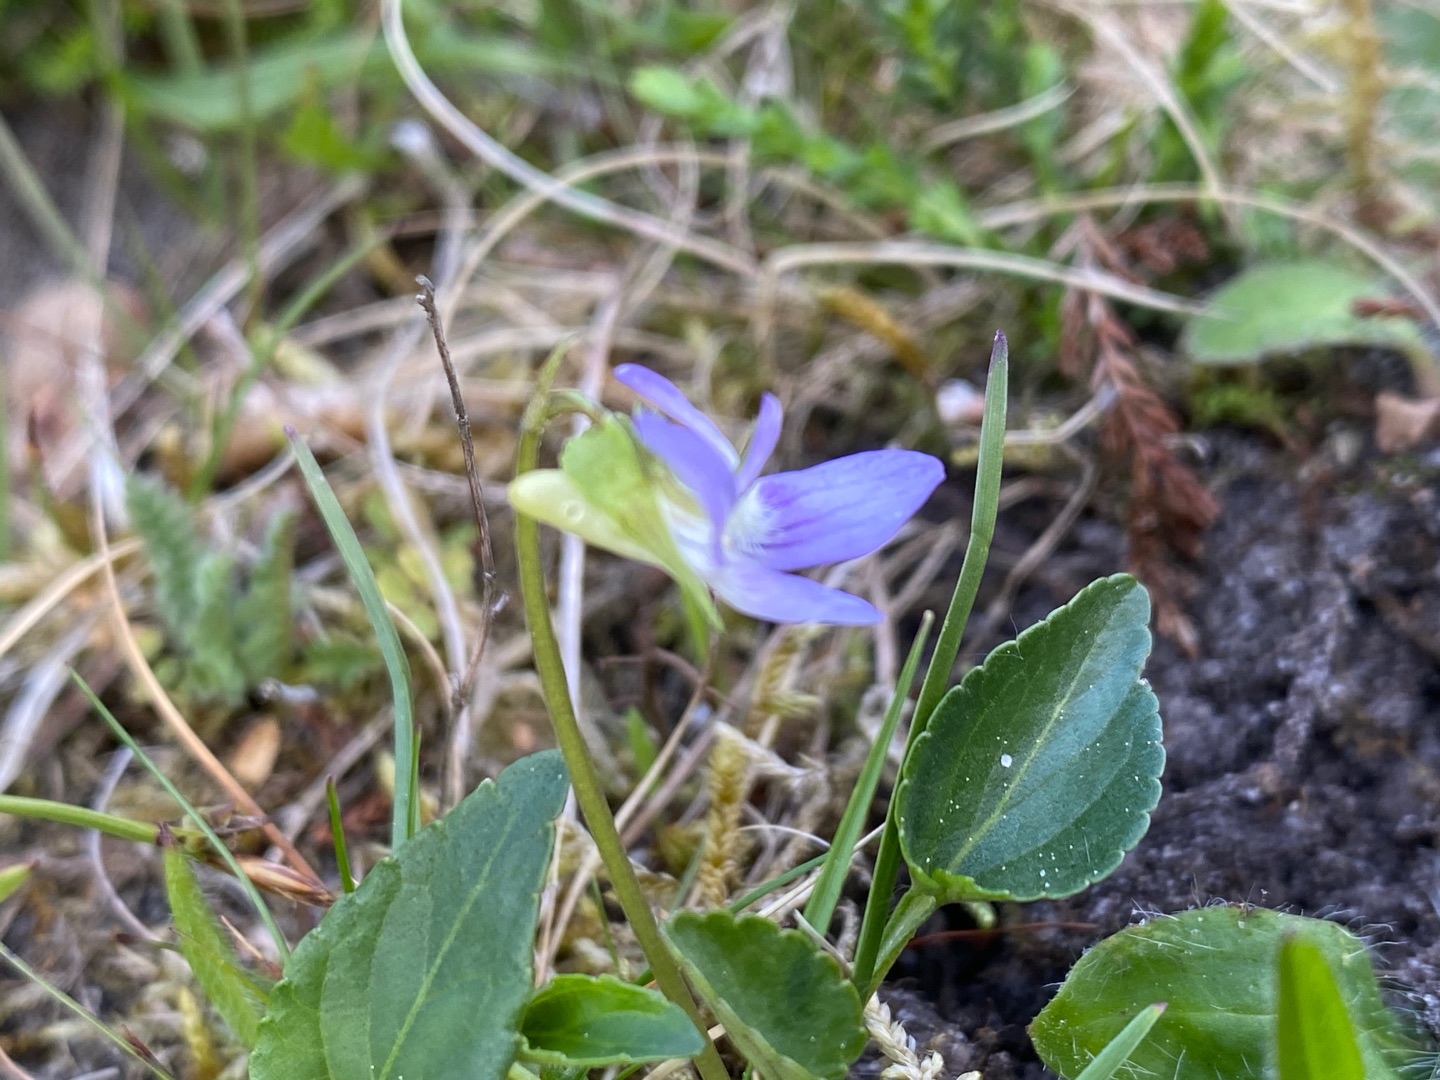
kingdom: Plantae
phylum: Tracheophyta
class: Magnoliopsida
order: Malpighiales
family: Violaceae
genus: Viola
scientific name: Viola canina
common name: Hunde-viol
